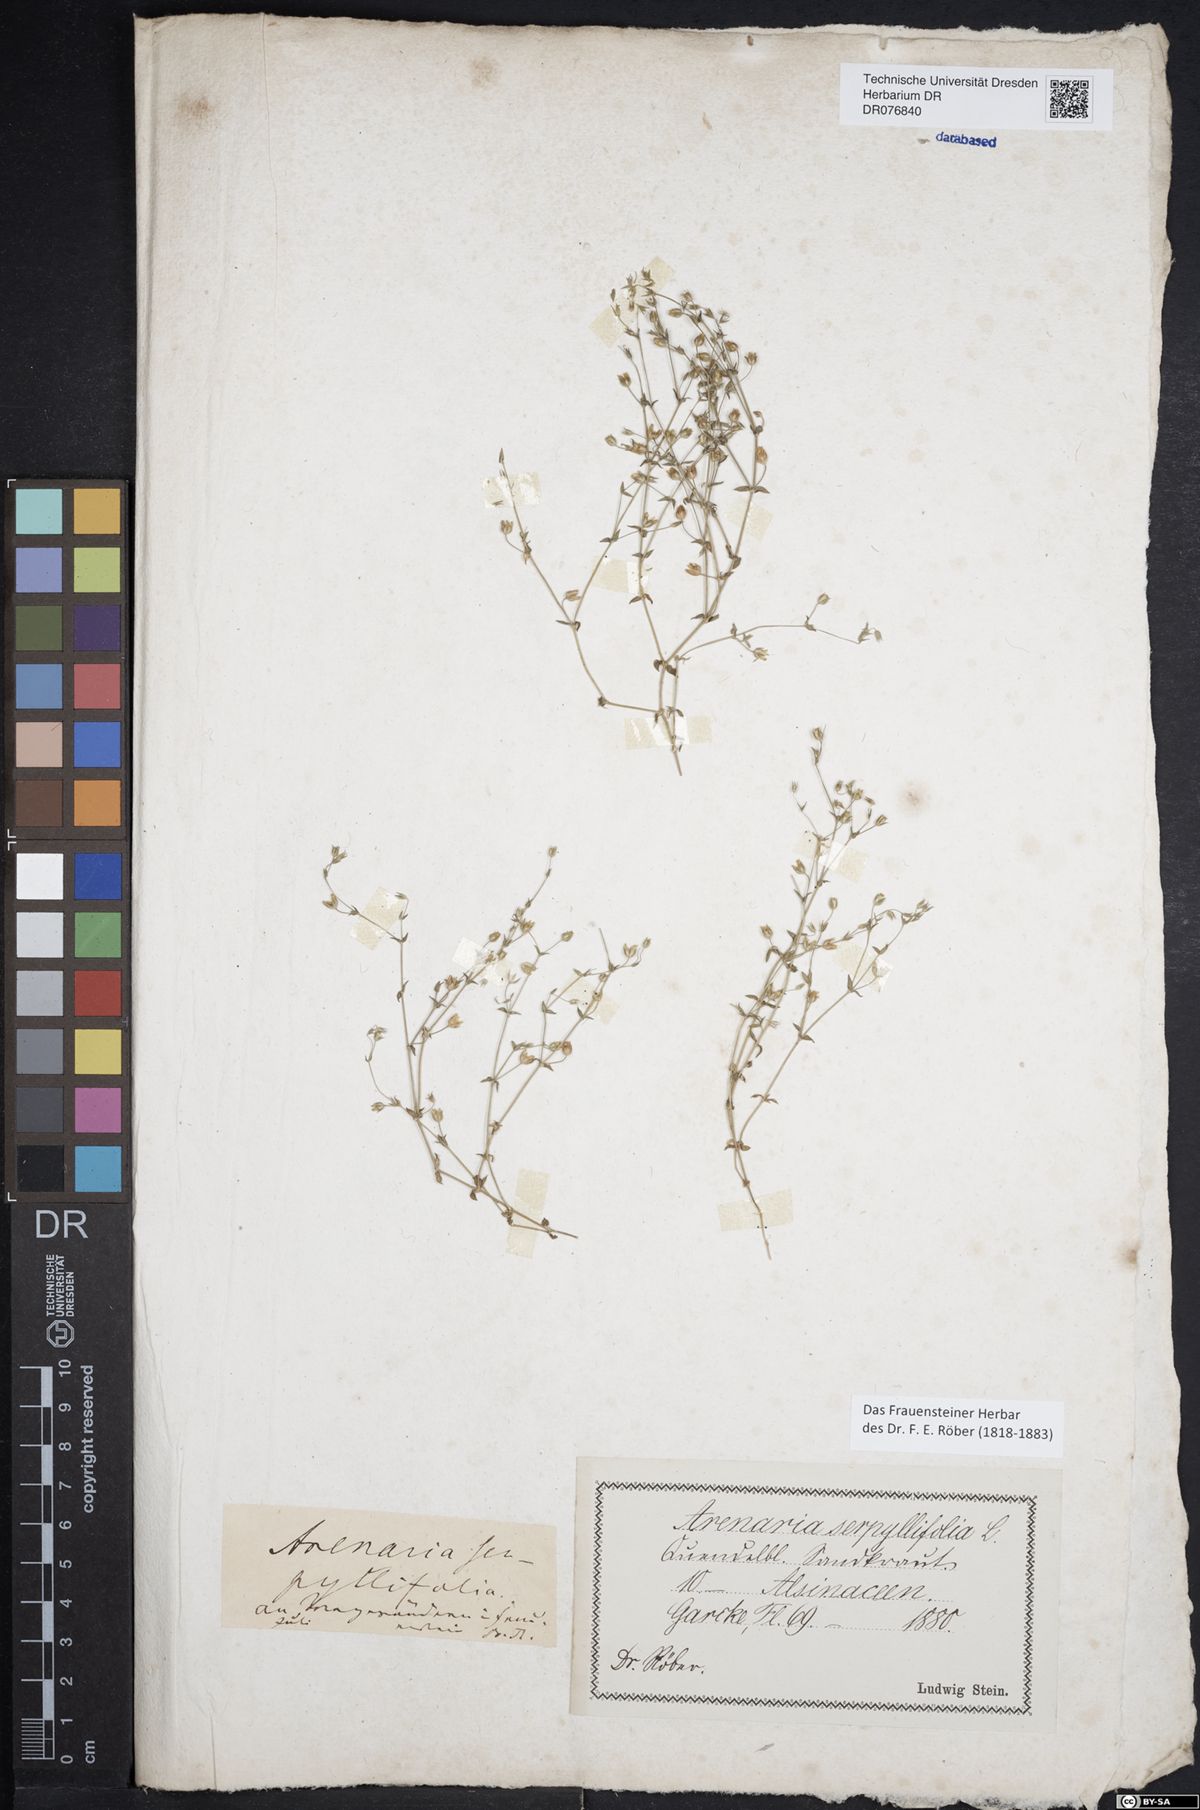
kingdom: Plantae
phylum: Tracheophyta
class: Magnoliopsida
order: Caryophyllales
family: Caryophyllaceae
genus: Arenaria
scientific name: Arenaria serpyllifolia
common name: Thyme-leaved sandwort
